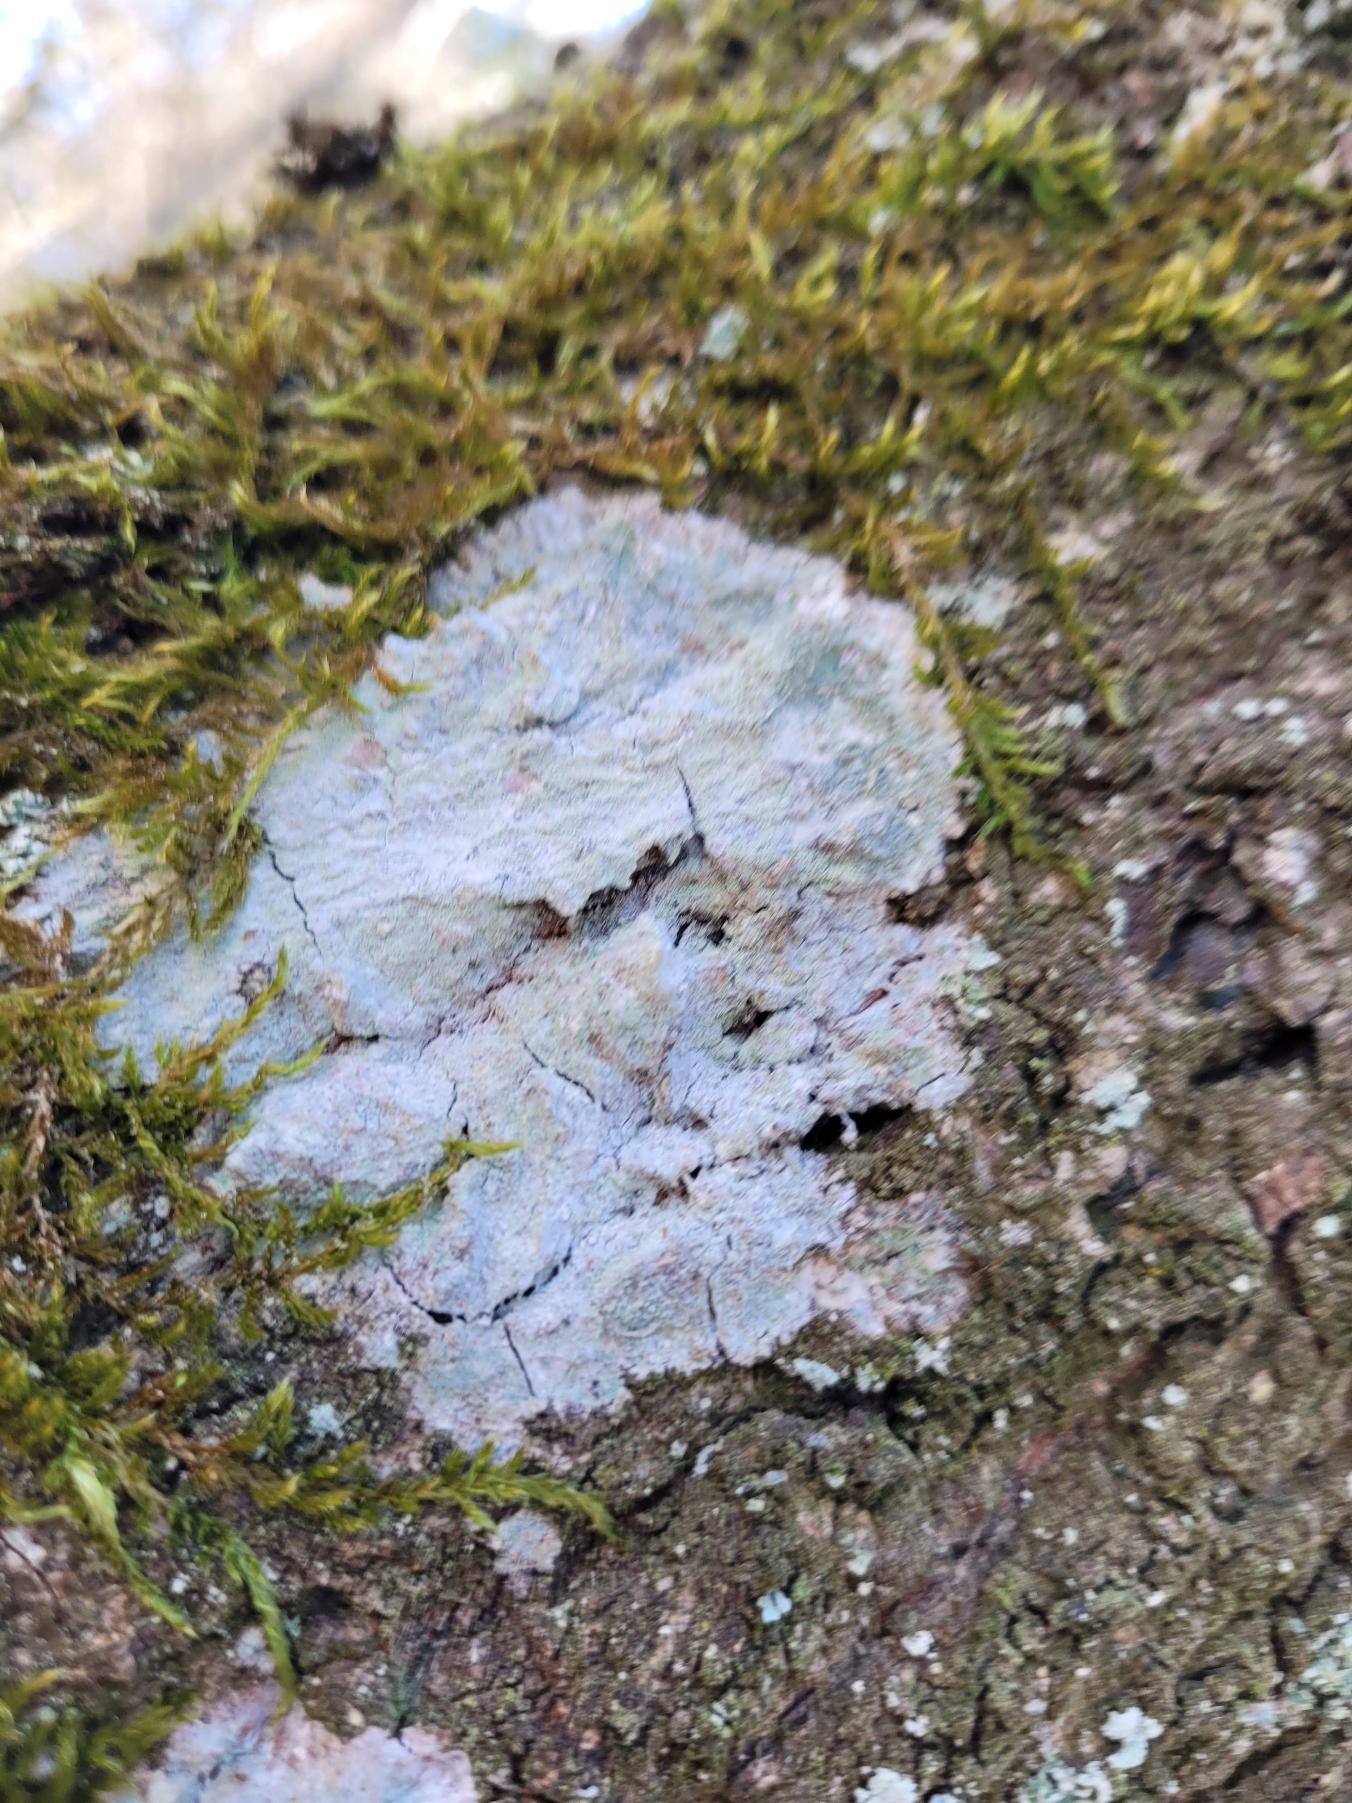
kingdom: Fungi
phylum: Ascomycota
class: Lecanoromycetes
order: Ostropales
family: Phlyctidaceae
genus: Phlyctis
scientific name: Phlyctis argena
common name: Almindelig sølvlav
